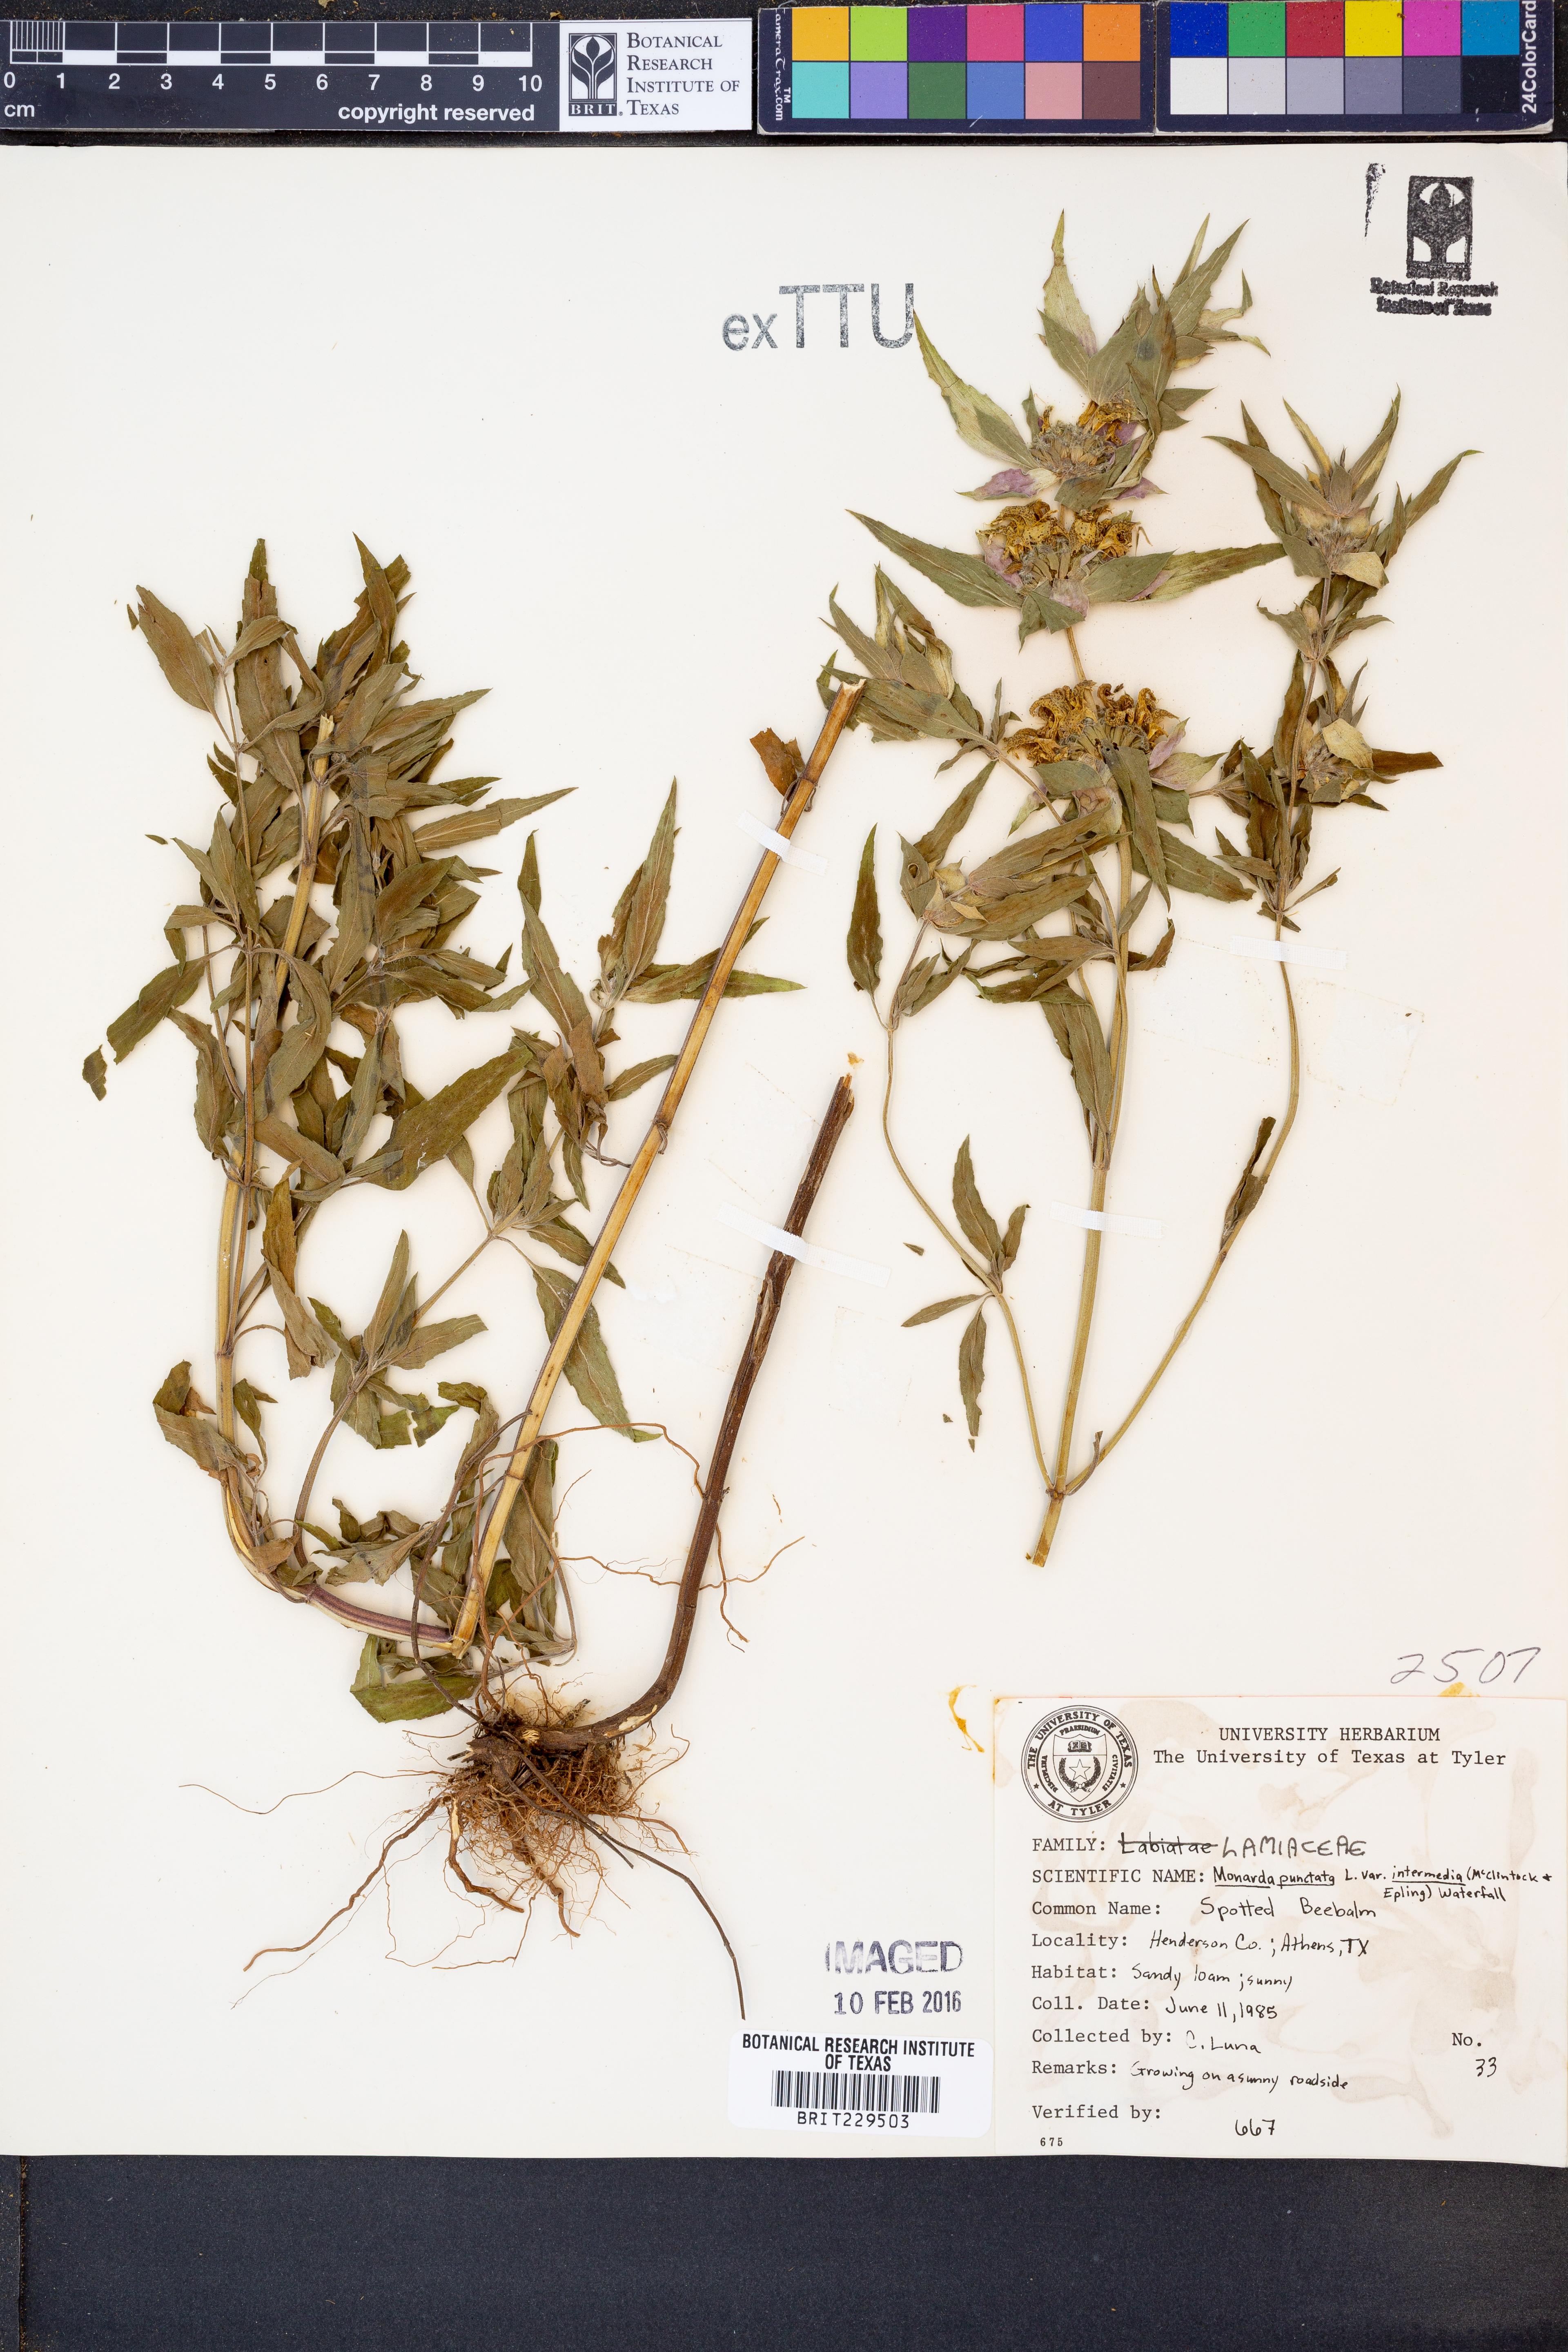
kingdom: Plantae
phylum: Tracheophyta
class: Magnoliopsida
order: Lamiales
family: Lamiaceae
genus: Monarda
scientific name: Monarda punctata
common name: Dotted monarda
